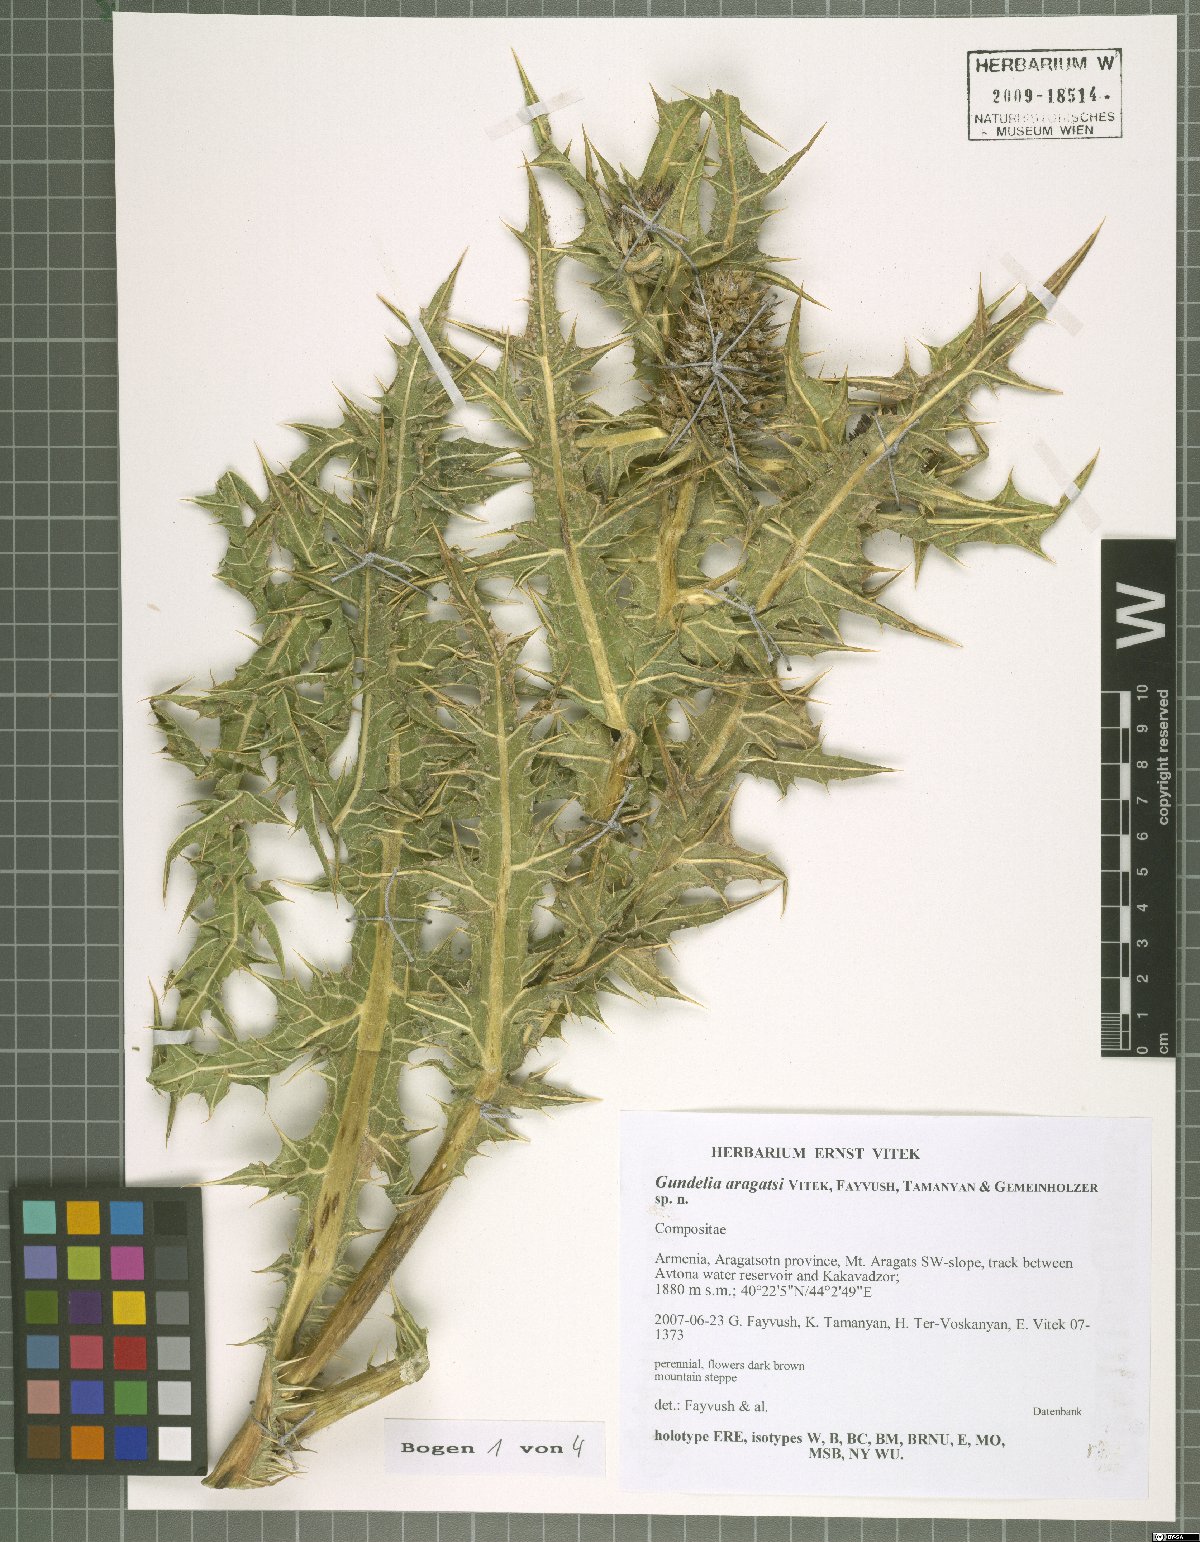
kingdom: Plantae
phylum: Tracheophyta
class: Magnoliopsida
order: Asterales
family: Asteraceae
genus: Gundelia
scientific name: Gundelia aragatsi
